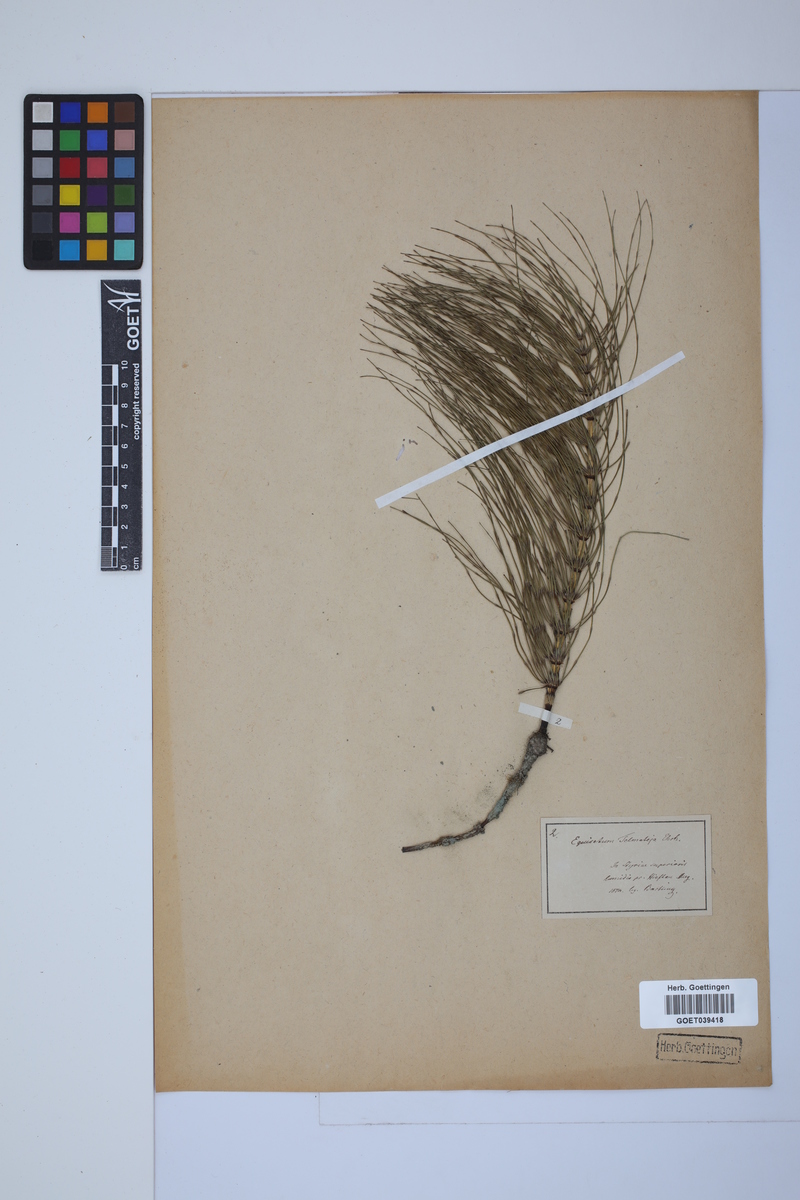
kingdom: Plantae
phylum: Tracheophyta
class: Polypodiopsida
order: Equisetales
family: Equisetaceae
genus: Equisetum
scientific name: Equisetum telmateia
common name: Great horsetail
